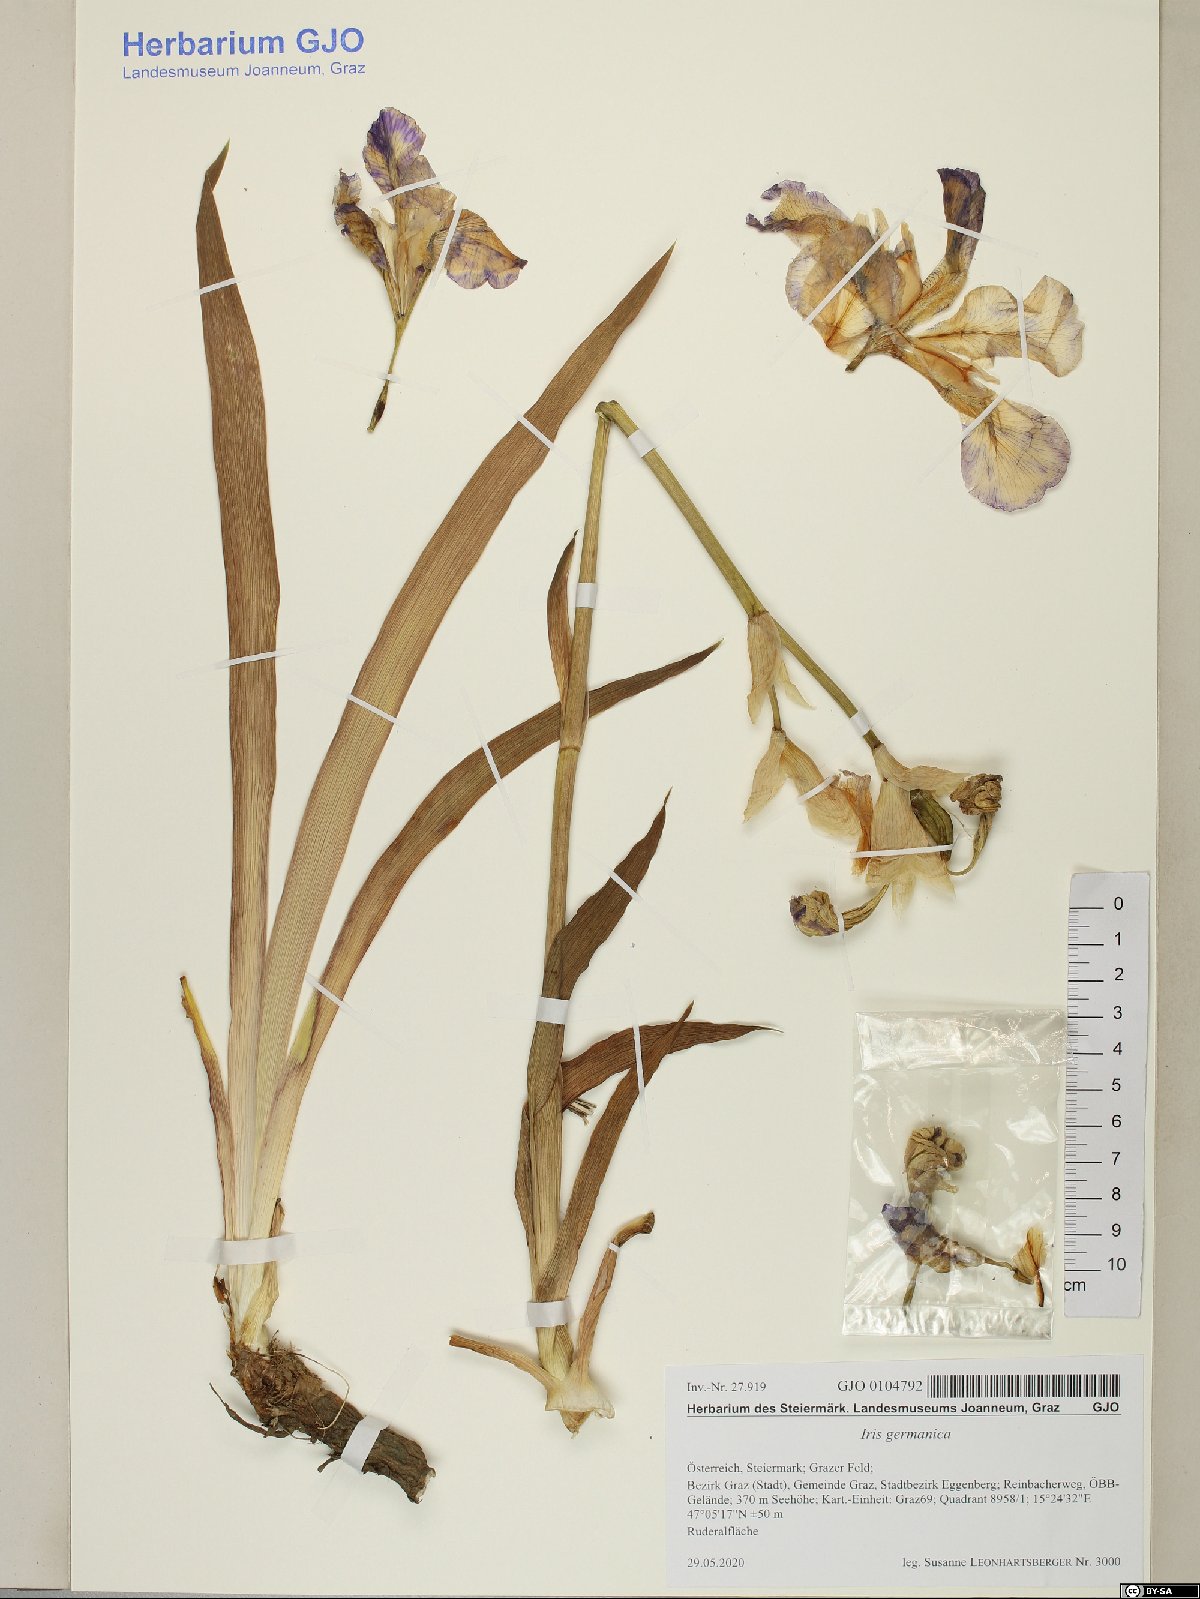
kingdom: Plantae
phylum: Tracheophyta
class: Liliopsida
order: Asparagales
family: Iridaceae
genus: Iris
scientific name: Iris germanica
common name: German iris
